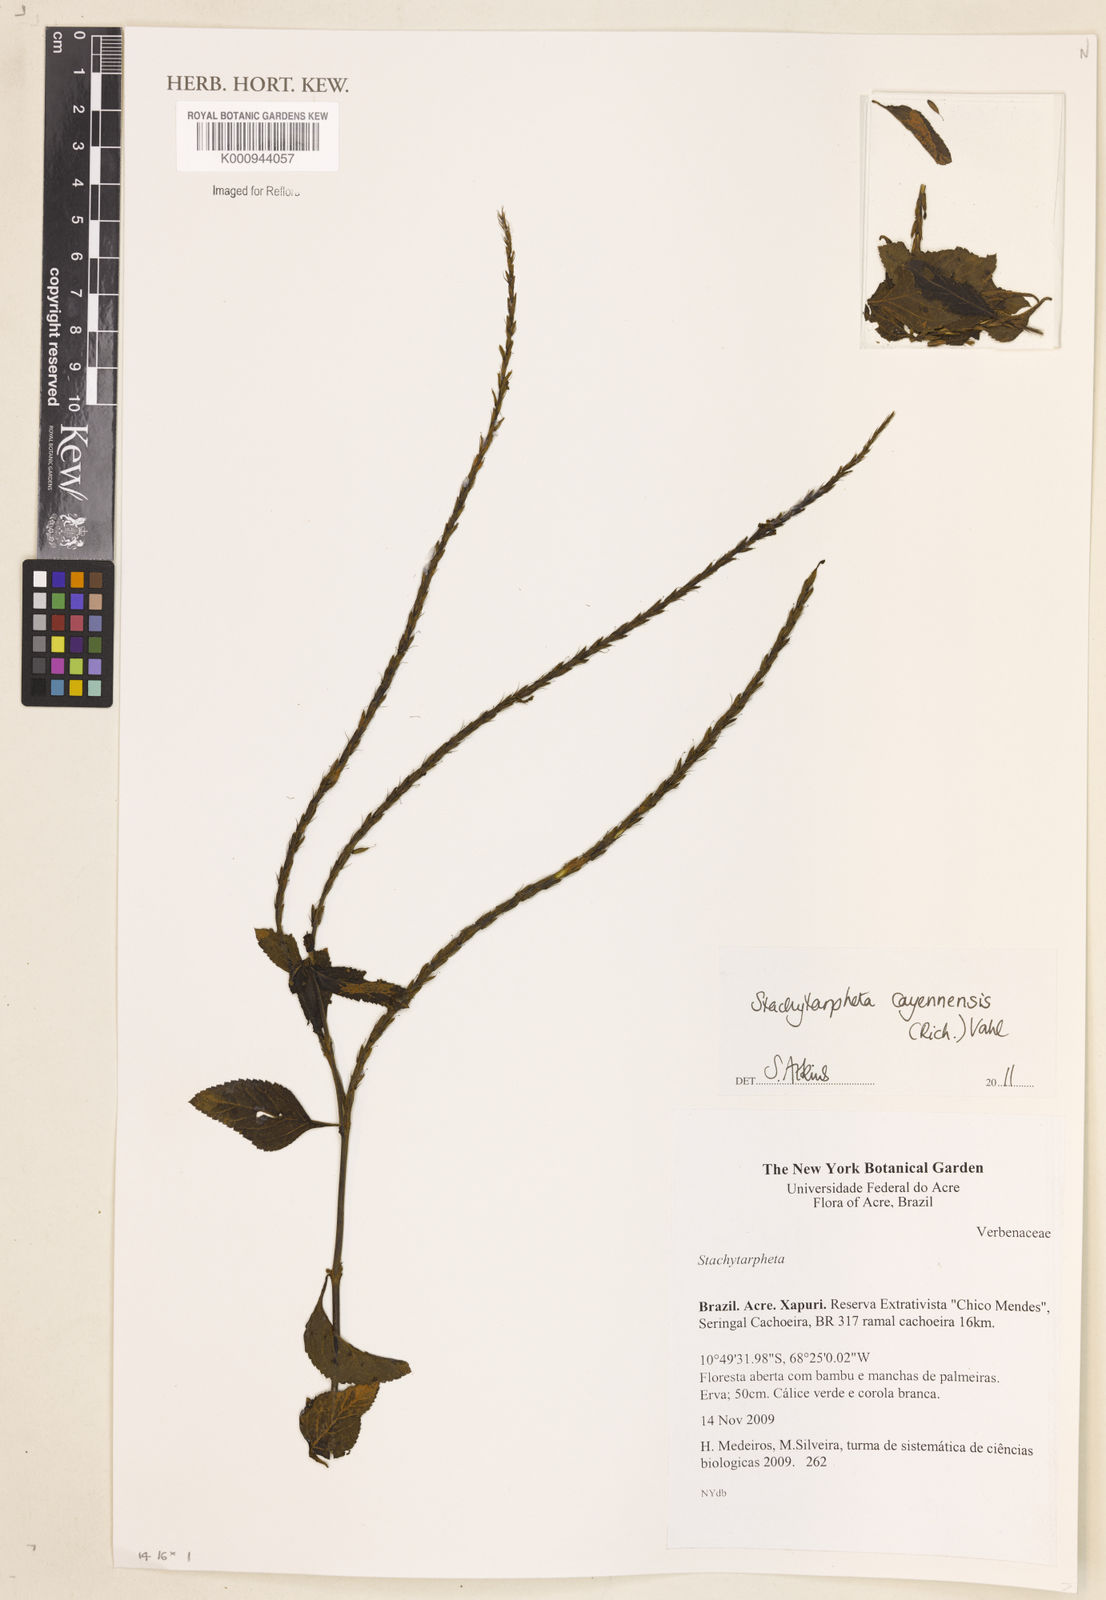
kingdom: Plantae
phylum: Tracheophyta
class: Magnoliopsida
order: Lamiales
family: Verbenaceae
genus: Aloysia
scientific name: Aloysia
